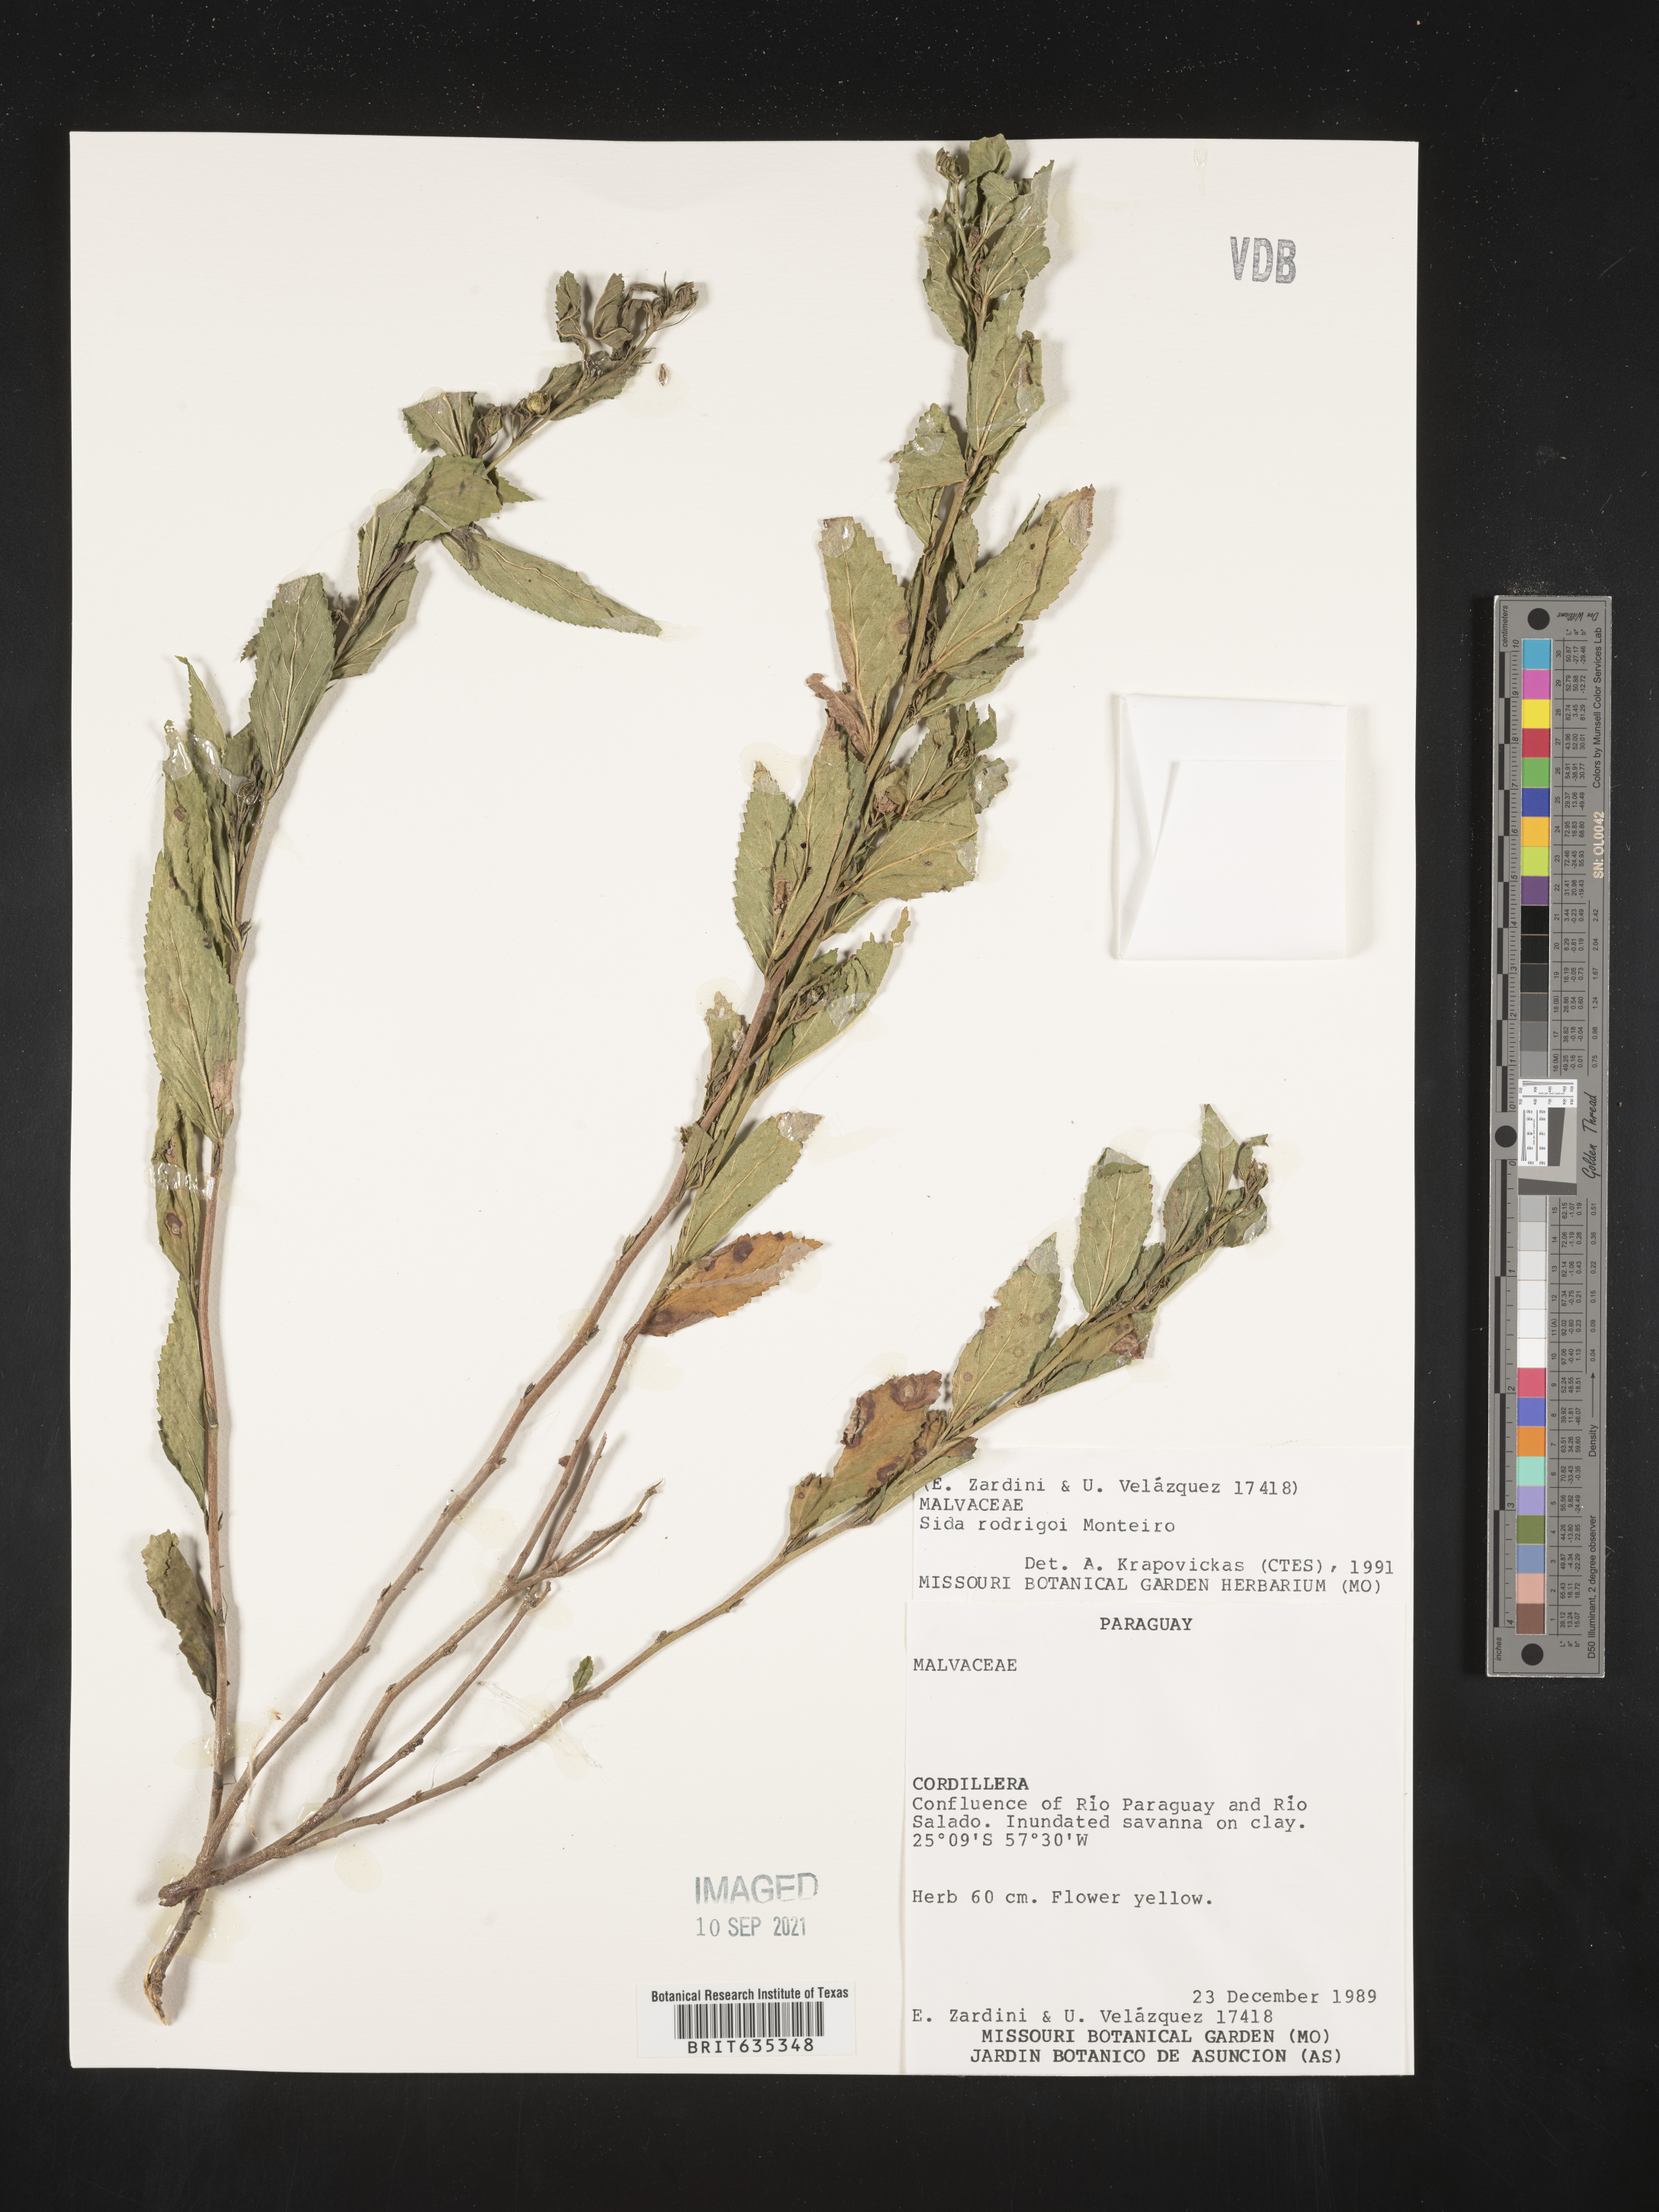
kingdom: Plantae
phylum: Tracheophyta
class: Magnoliopsida
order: Malvales
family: Malvaceae
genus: Sida
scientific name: Sida
